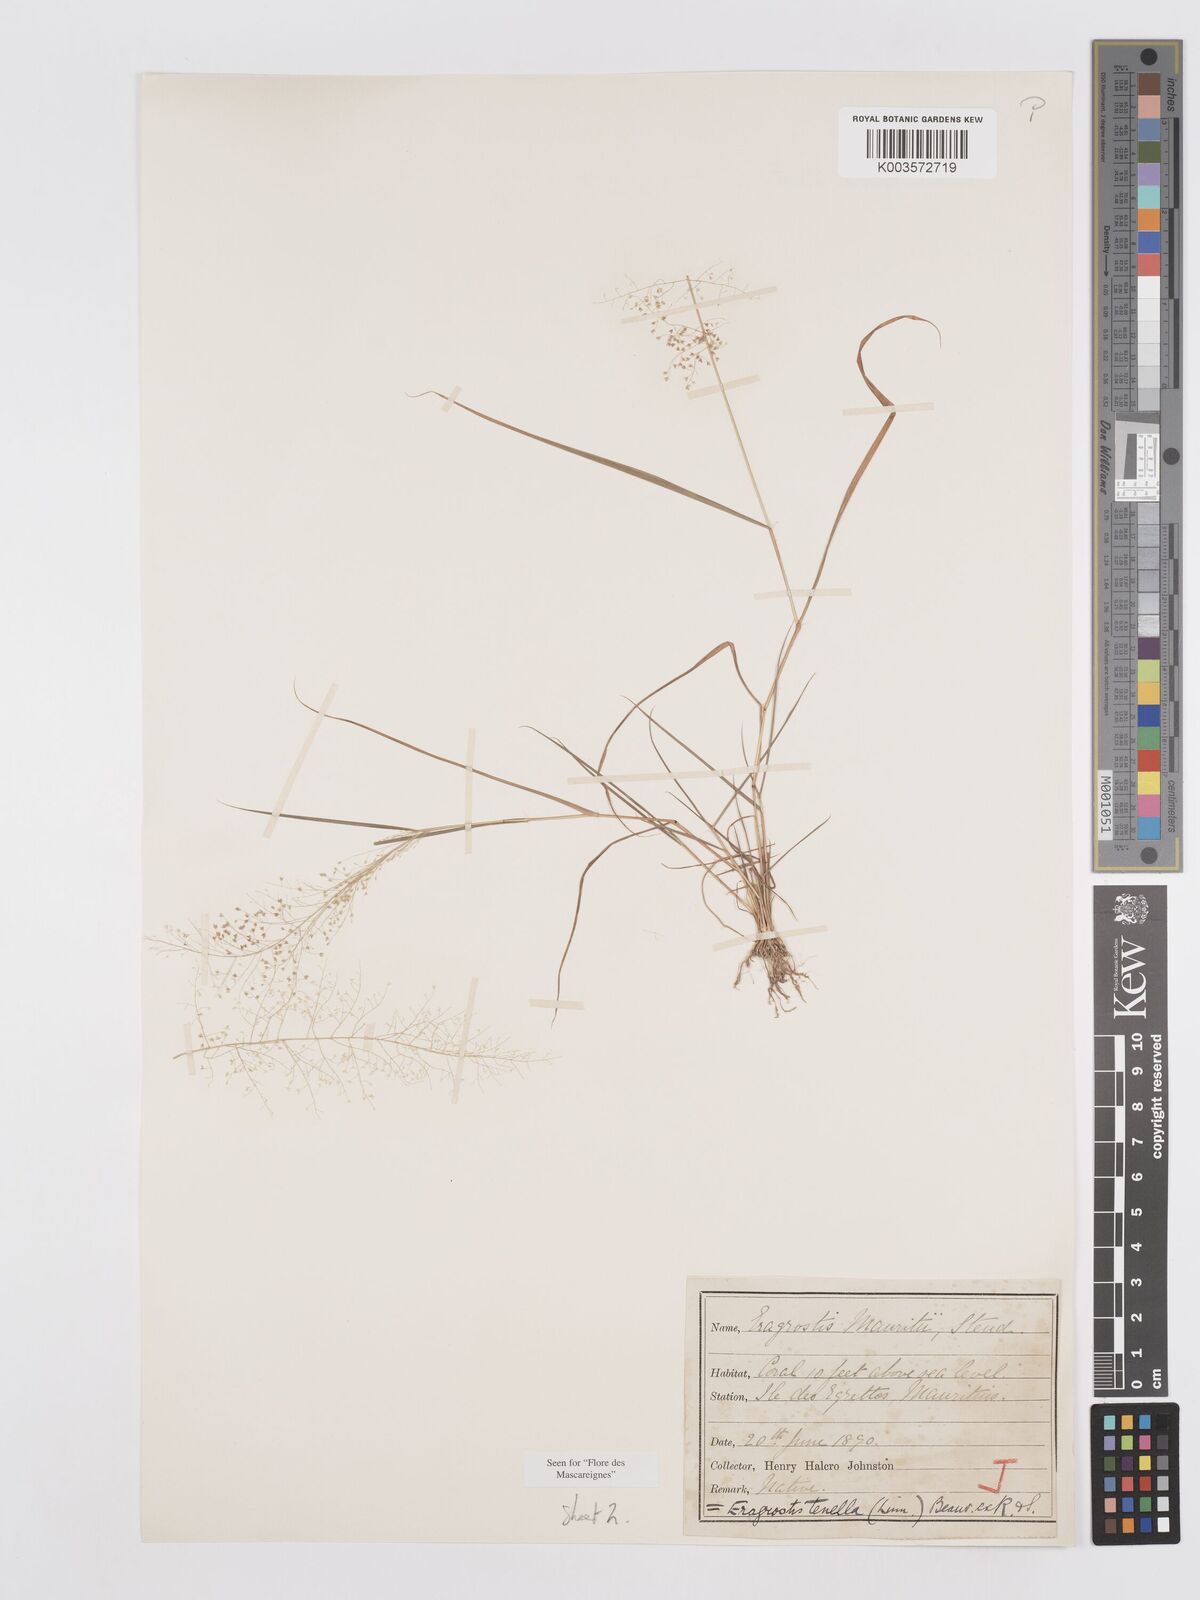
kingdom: Plantae
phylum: Tracheophyta
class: Liliopsida
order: Poales
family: Poaceae
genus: Eragrostis
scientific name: Eragrostis tenella
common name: Japanese lovegrass
